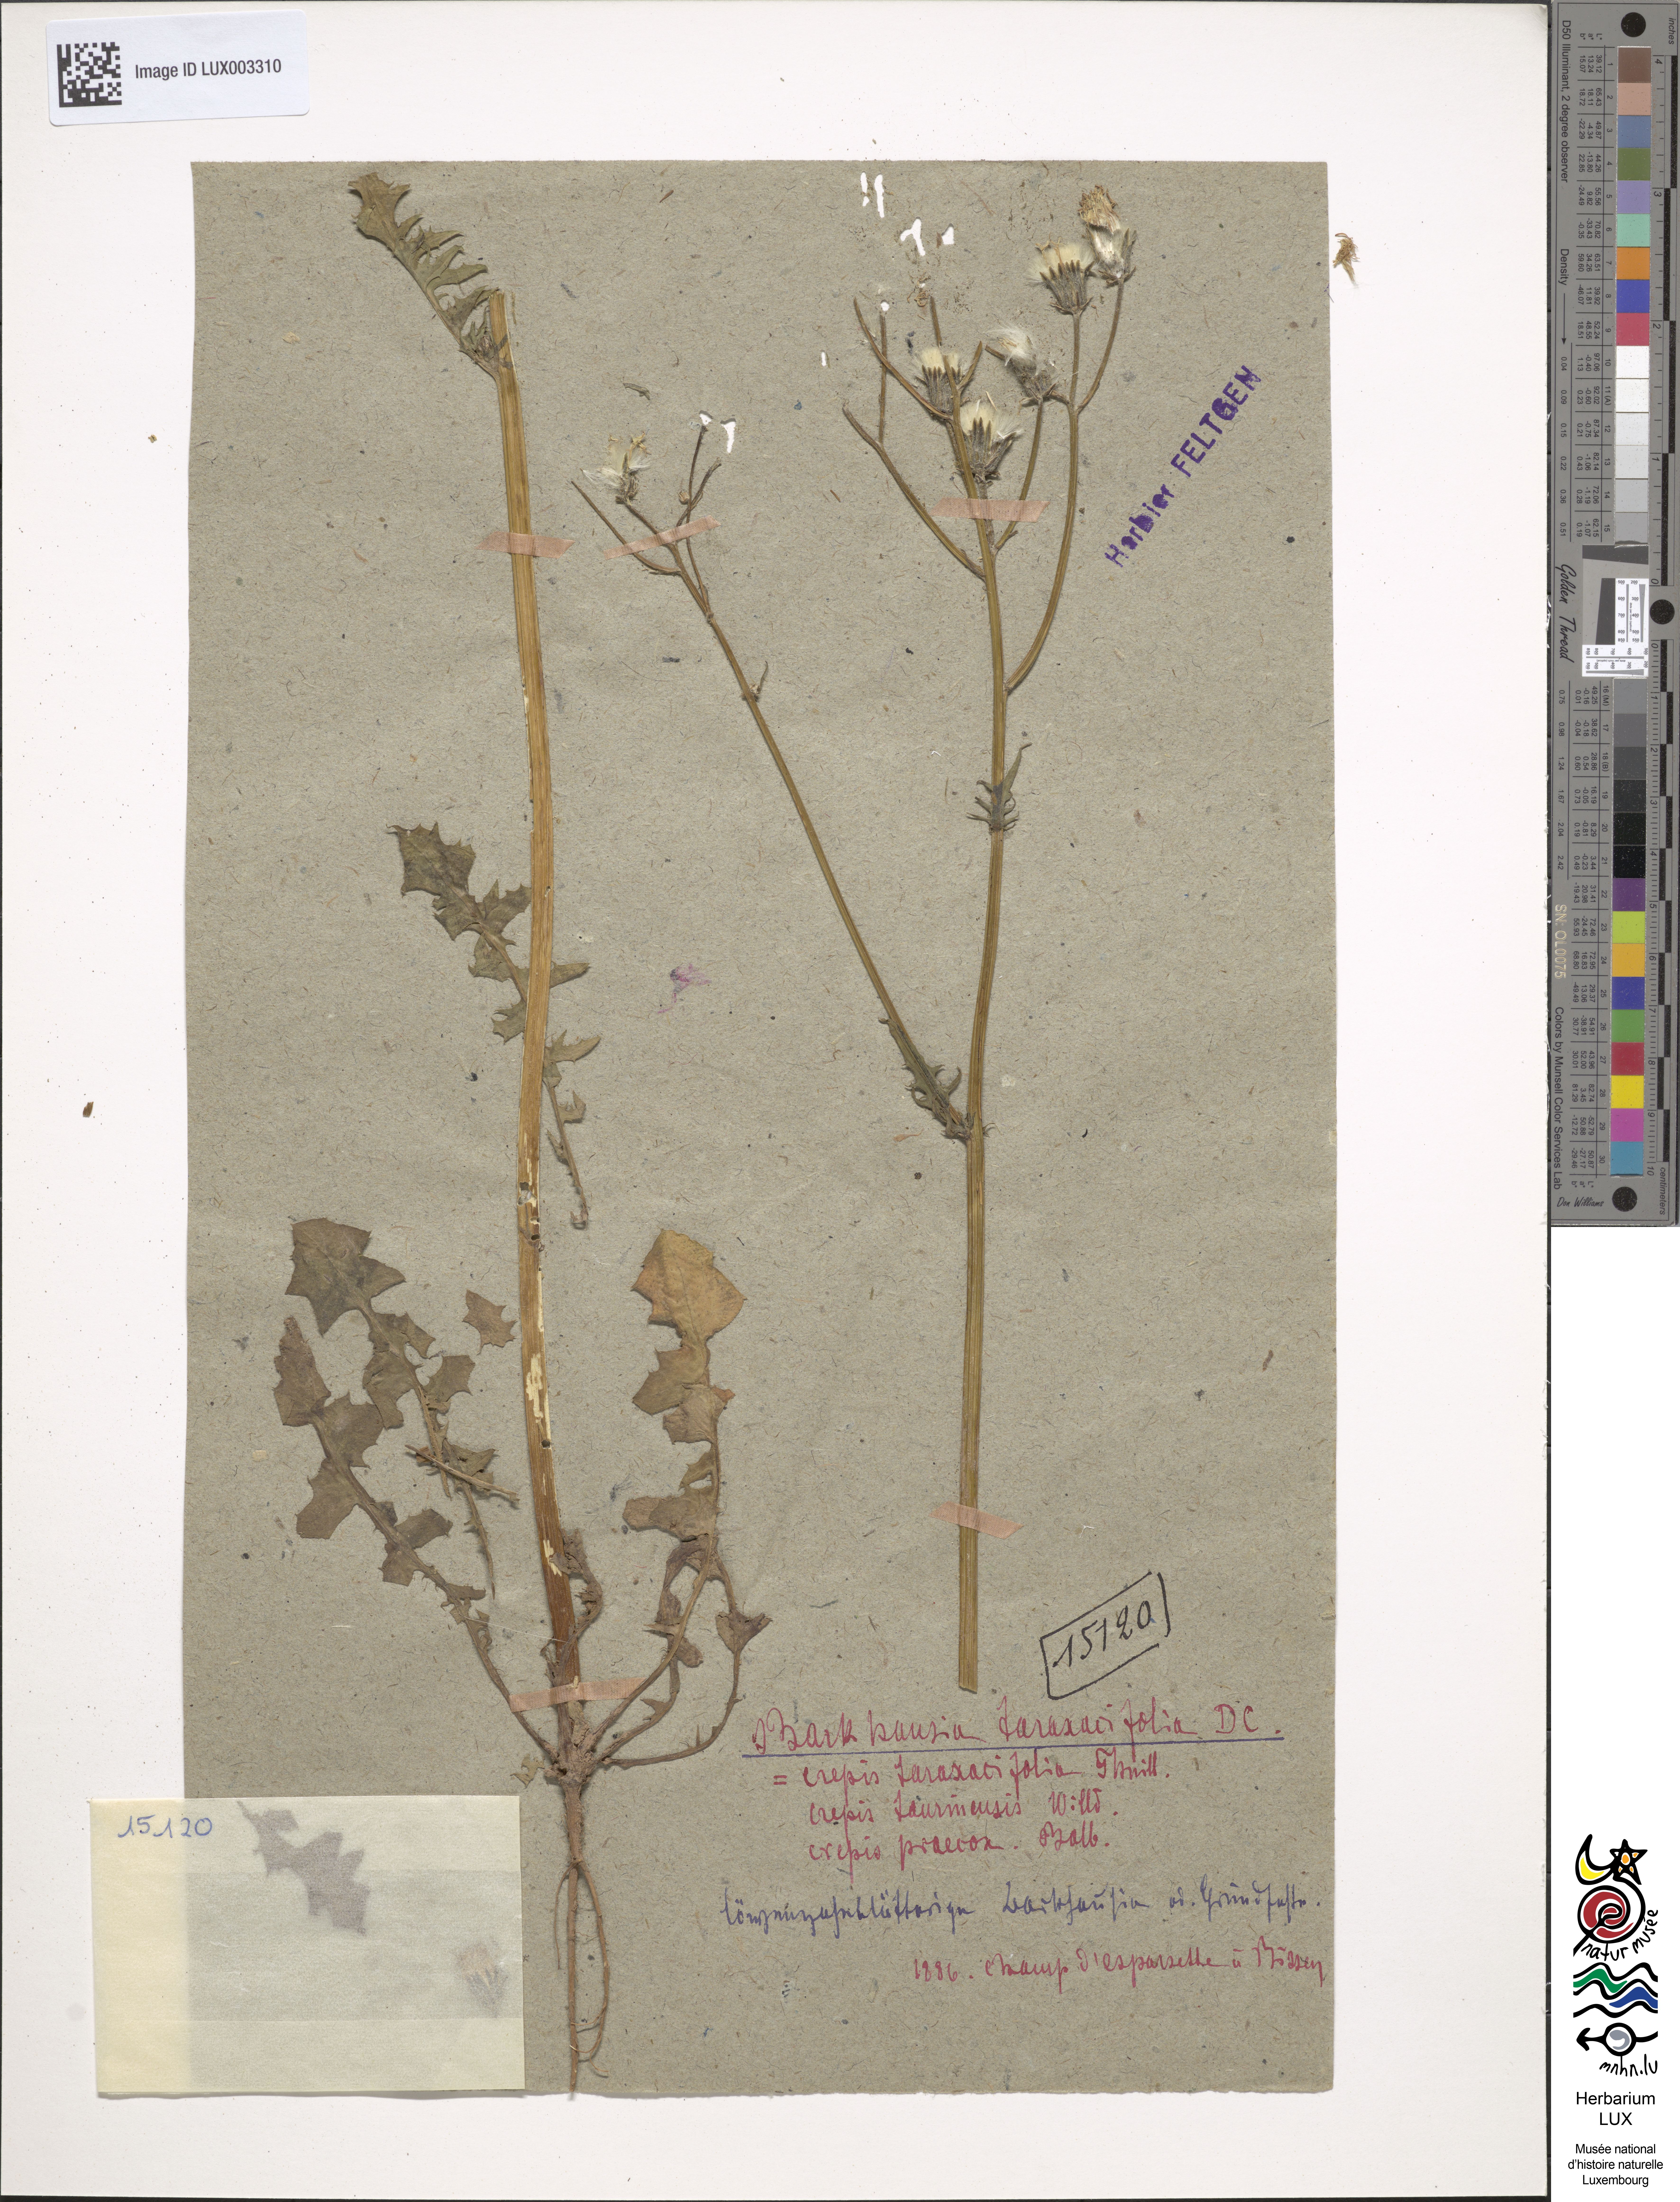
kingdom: Plantae
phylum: Tracheophyta
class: Magnoliopsida
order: Asterales
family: Asteraceae
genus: Crepis
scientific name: Crepis vesicaria
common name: Beaked hawksbeard
